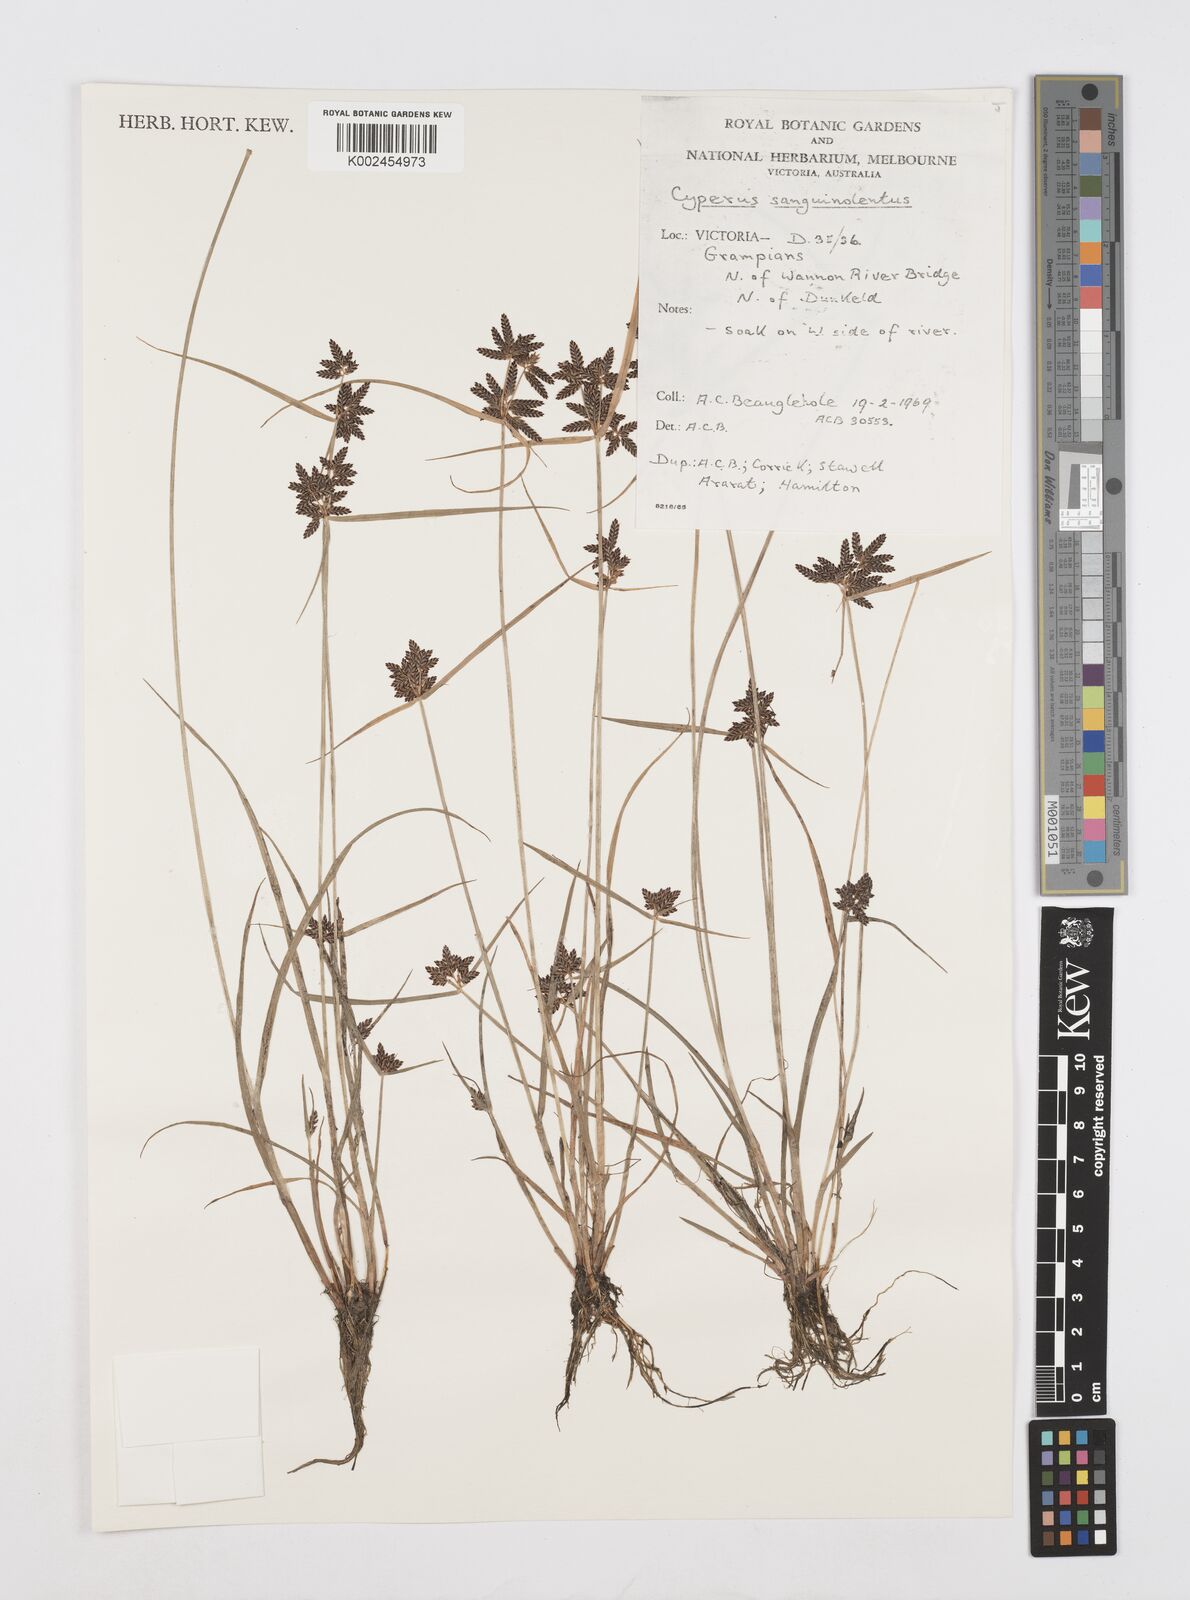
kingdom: Plantae
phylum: Tracheophyta
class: Liliopsida
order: Poales
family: Cyperaceae
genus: Cyperus
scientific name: Cyperus sanguinolentus
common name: Purpleglume flatsedge
